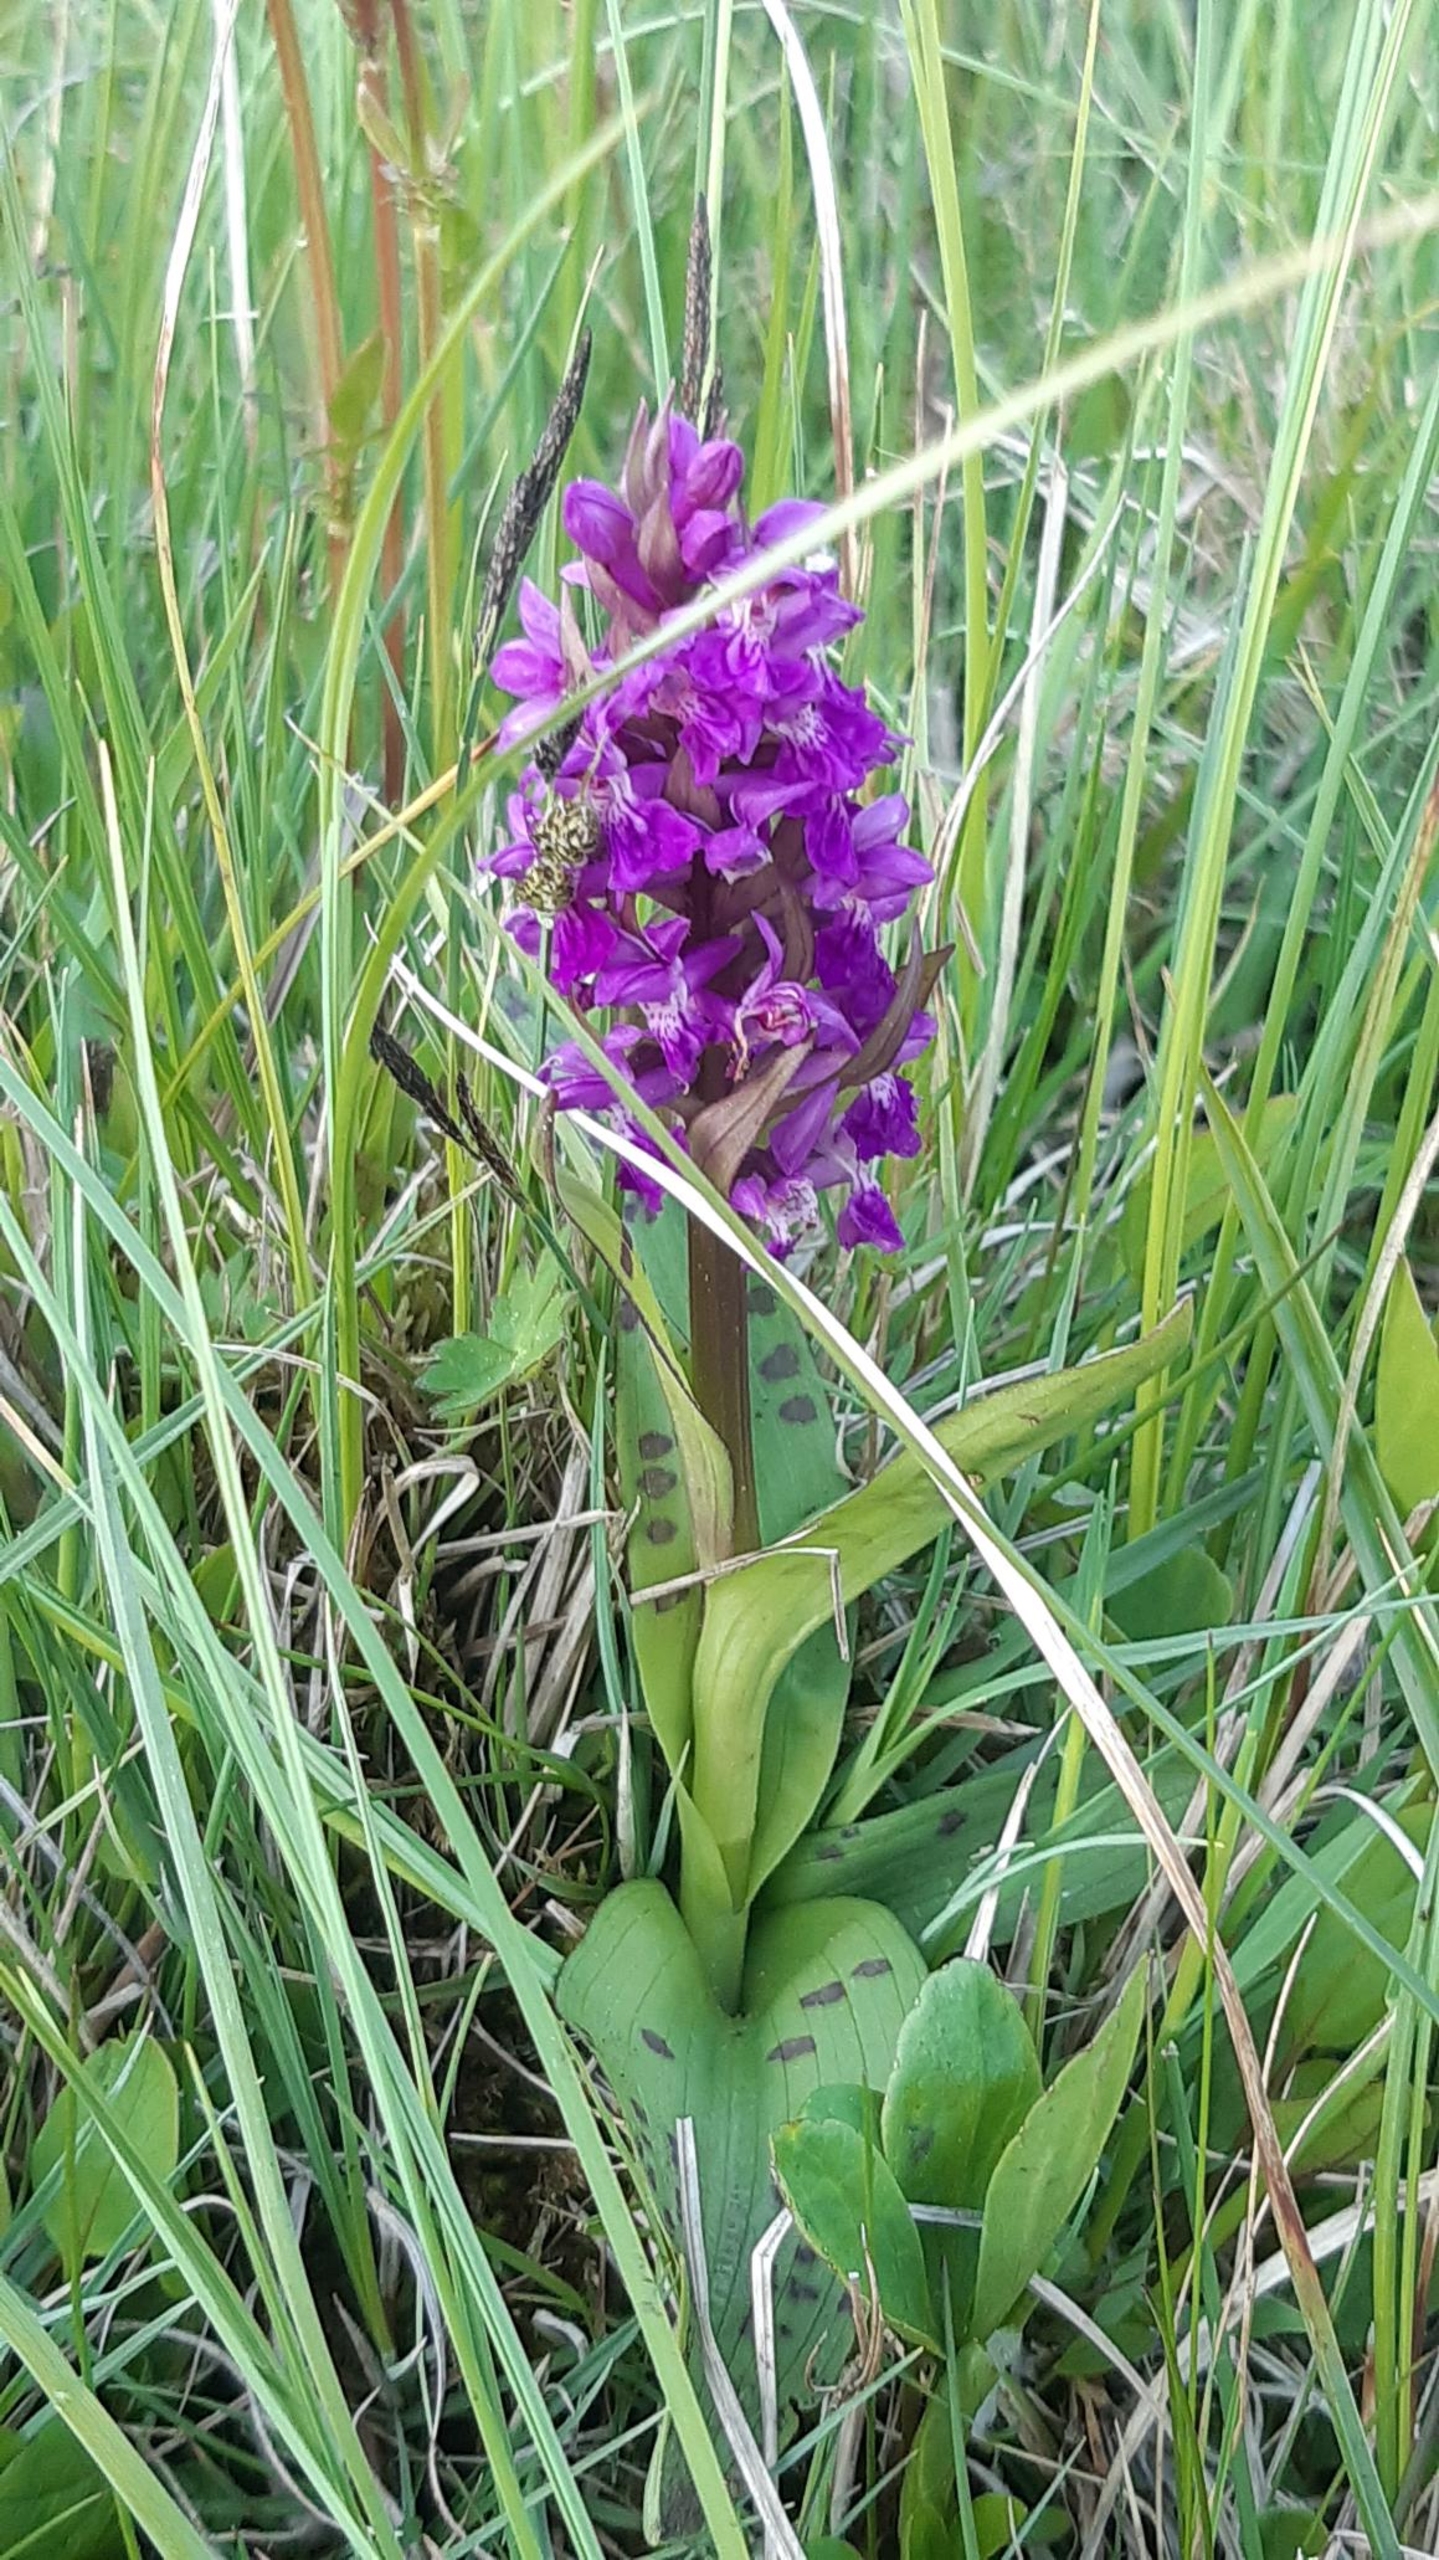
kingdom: Plantae
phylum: Tracheophyta
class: Liliopsida
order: Asparagales
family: Orchidaceae
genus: Dactylorhiza
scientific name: Dactylorhiza majalis
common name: Maj-gøgeurt
